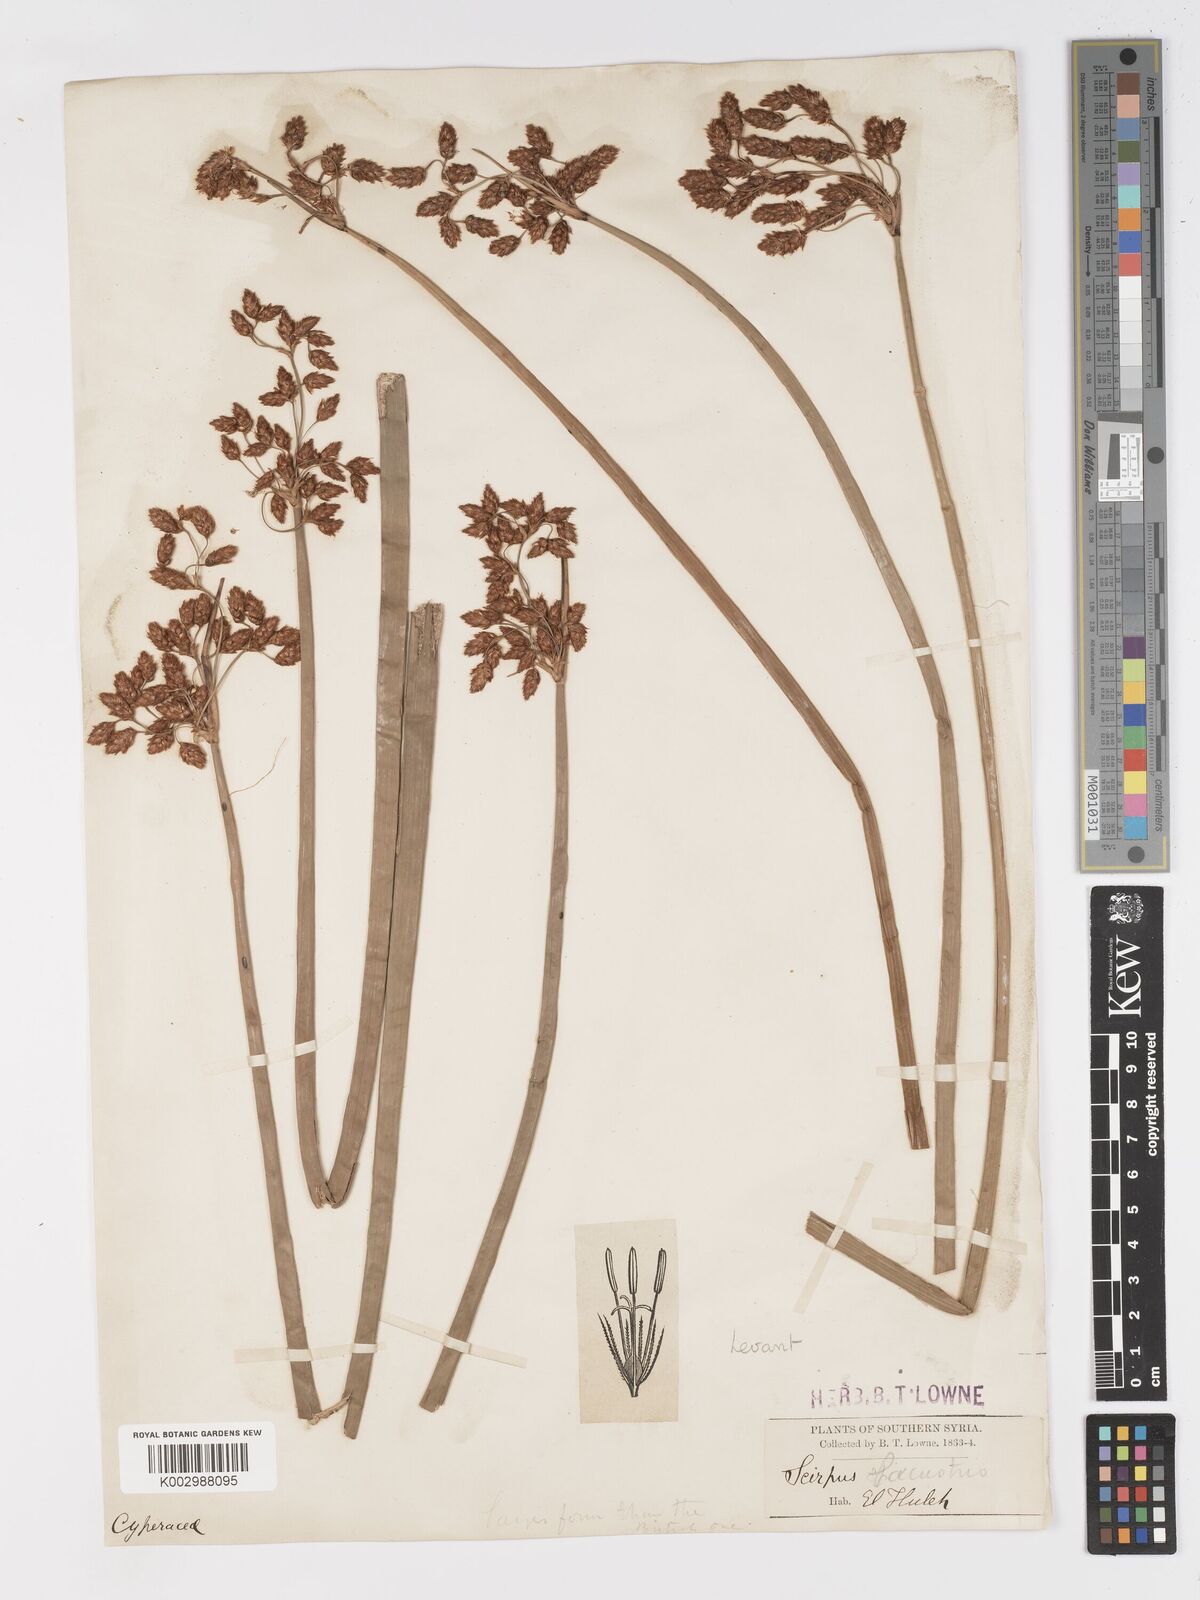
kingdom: Plantae
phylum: Tracheophyta
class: Liliopsida
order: Poales
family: Cyperaceae
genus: Schoenoplectus
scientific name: Schoenoplectus lacustris
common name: Common club-rush
